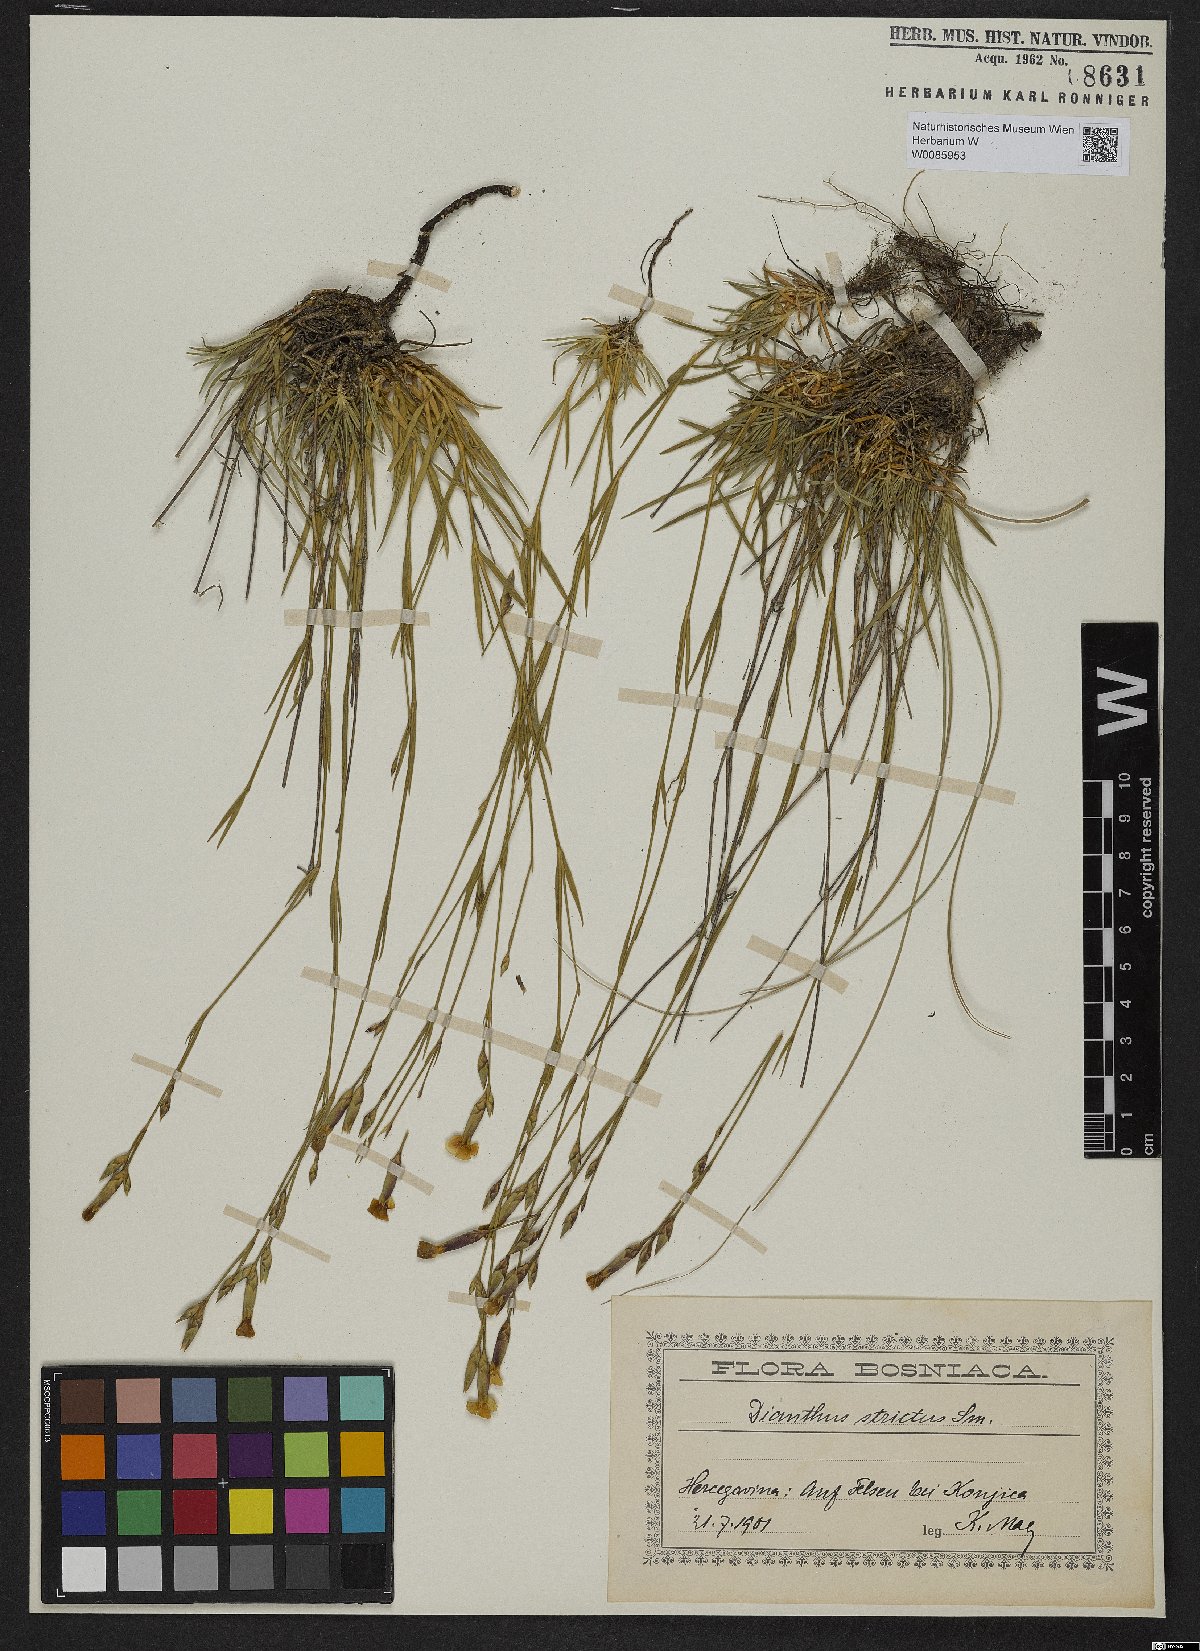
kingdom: Plantae
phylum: Tracheophyta
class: Magnoliopsida
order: Caryophyllales
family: Caryophyllaceae
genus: Dianthus
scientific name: Dianthus petraeus
